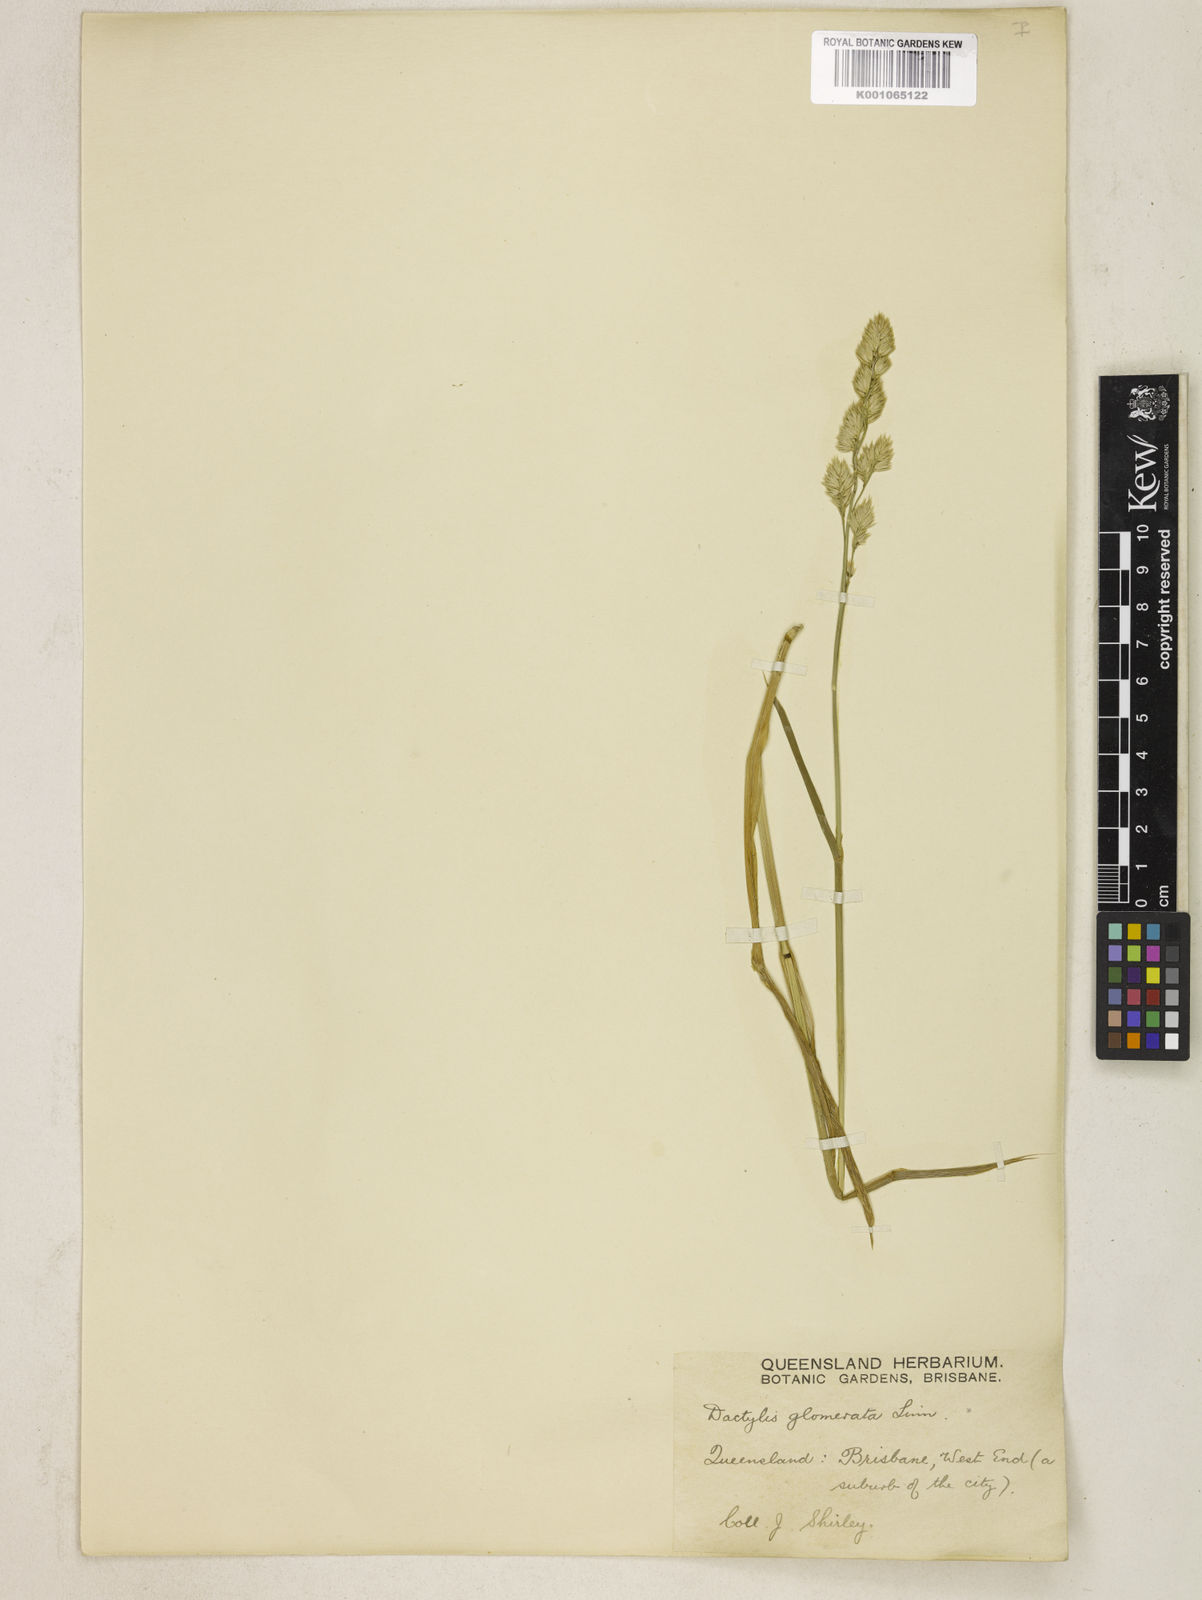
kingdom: Plantae
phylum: Tracheophyta
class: Liliopsida
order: Poales
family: Poaceae
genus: Dactylis
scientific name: Dactylis glomerata
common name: Orchardgrass
